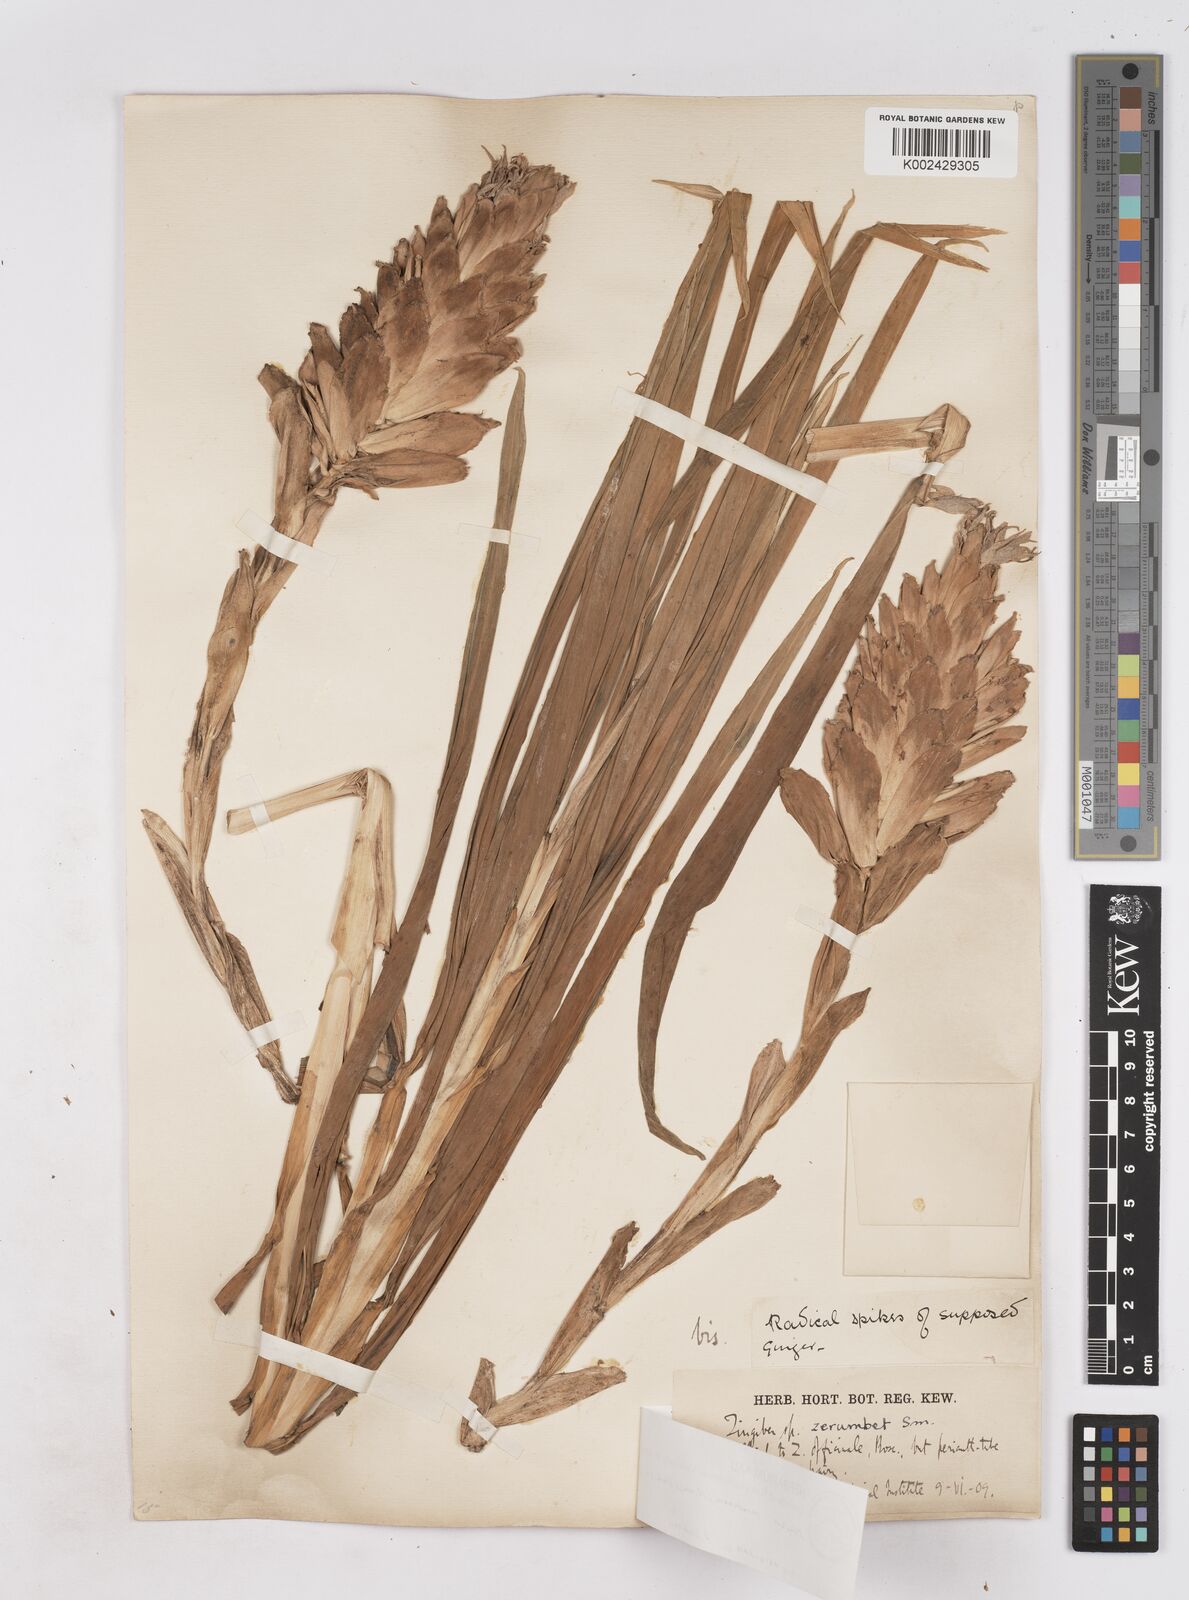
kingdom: Plantae
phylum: Tracheophyta
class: Liliopsida
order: Zingiberales
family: Zingiberaceae
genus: Zingiber
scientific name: Zingiber montanum
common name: Bengal ginger
